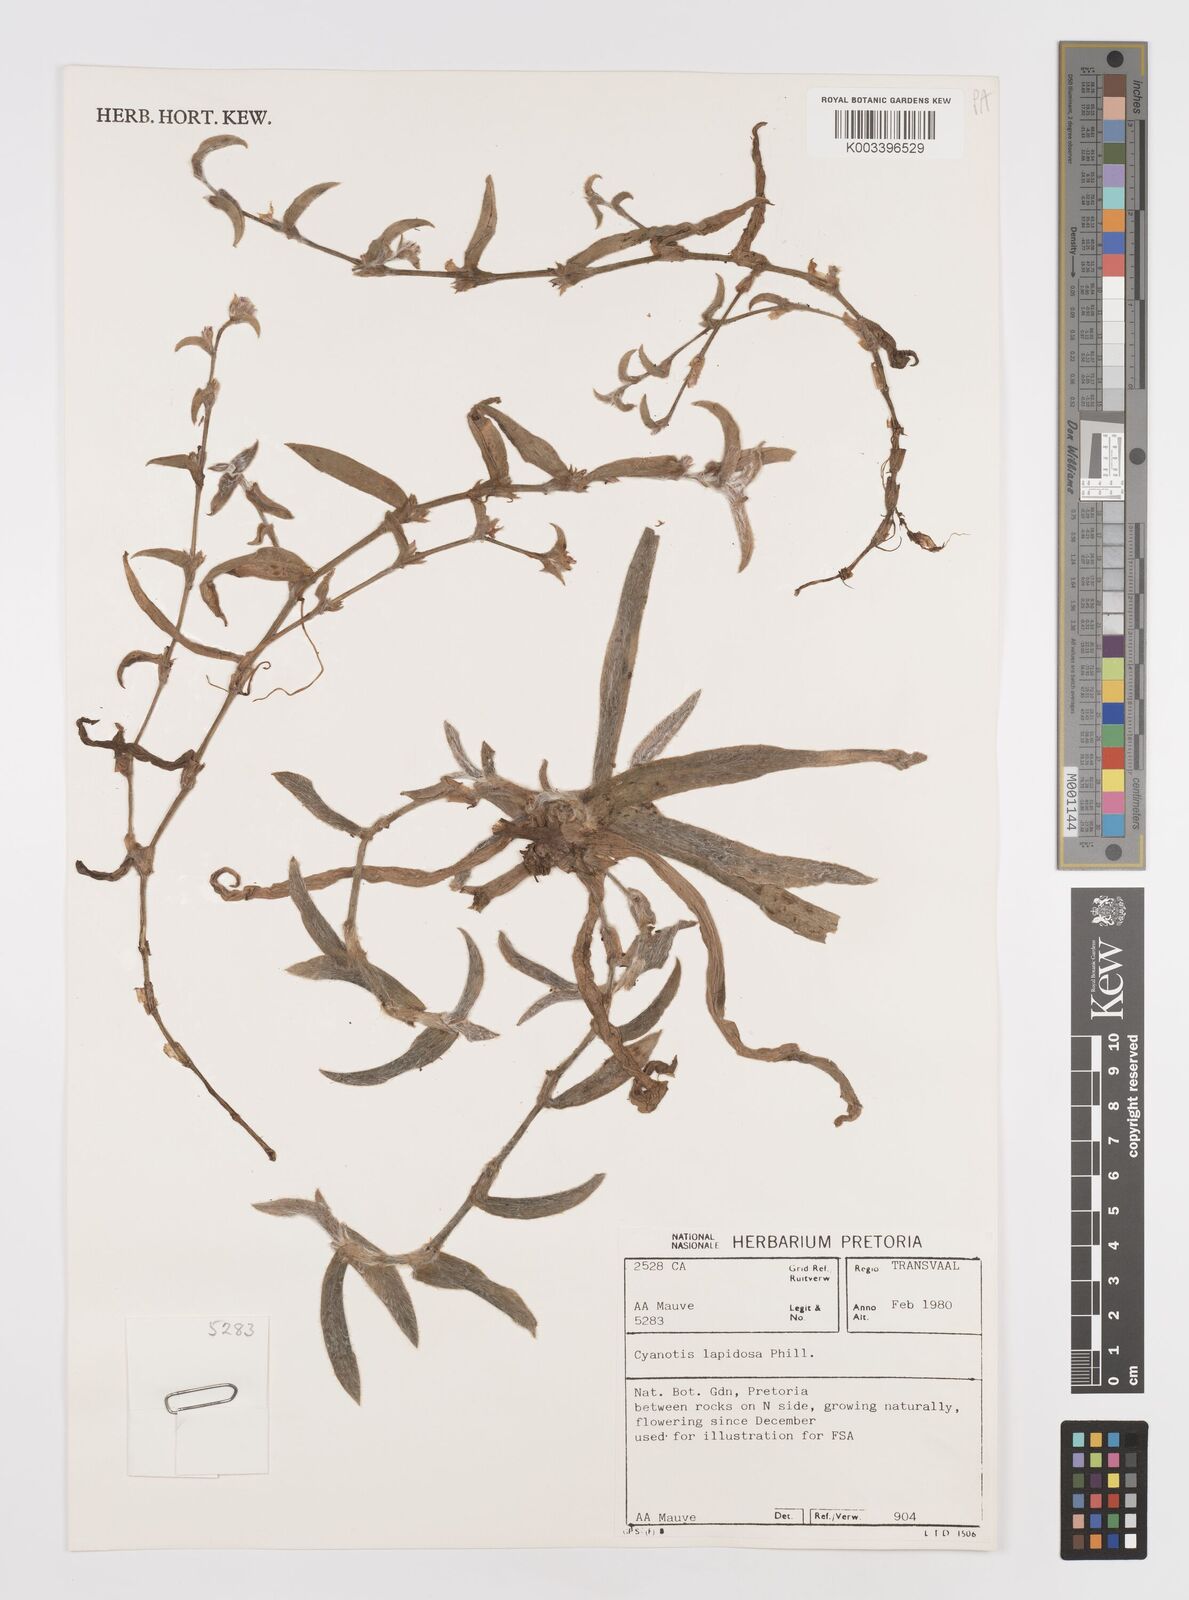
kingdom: Plantae
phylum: Tracheophyta
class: Liliopsida
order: Commelinales
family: Commelinaceae
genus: Cyanotis
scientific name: Cyanotis lapidosa
